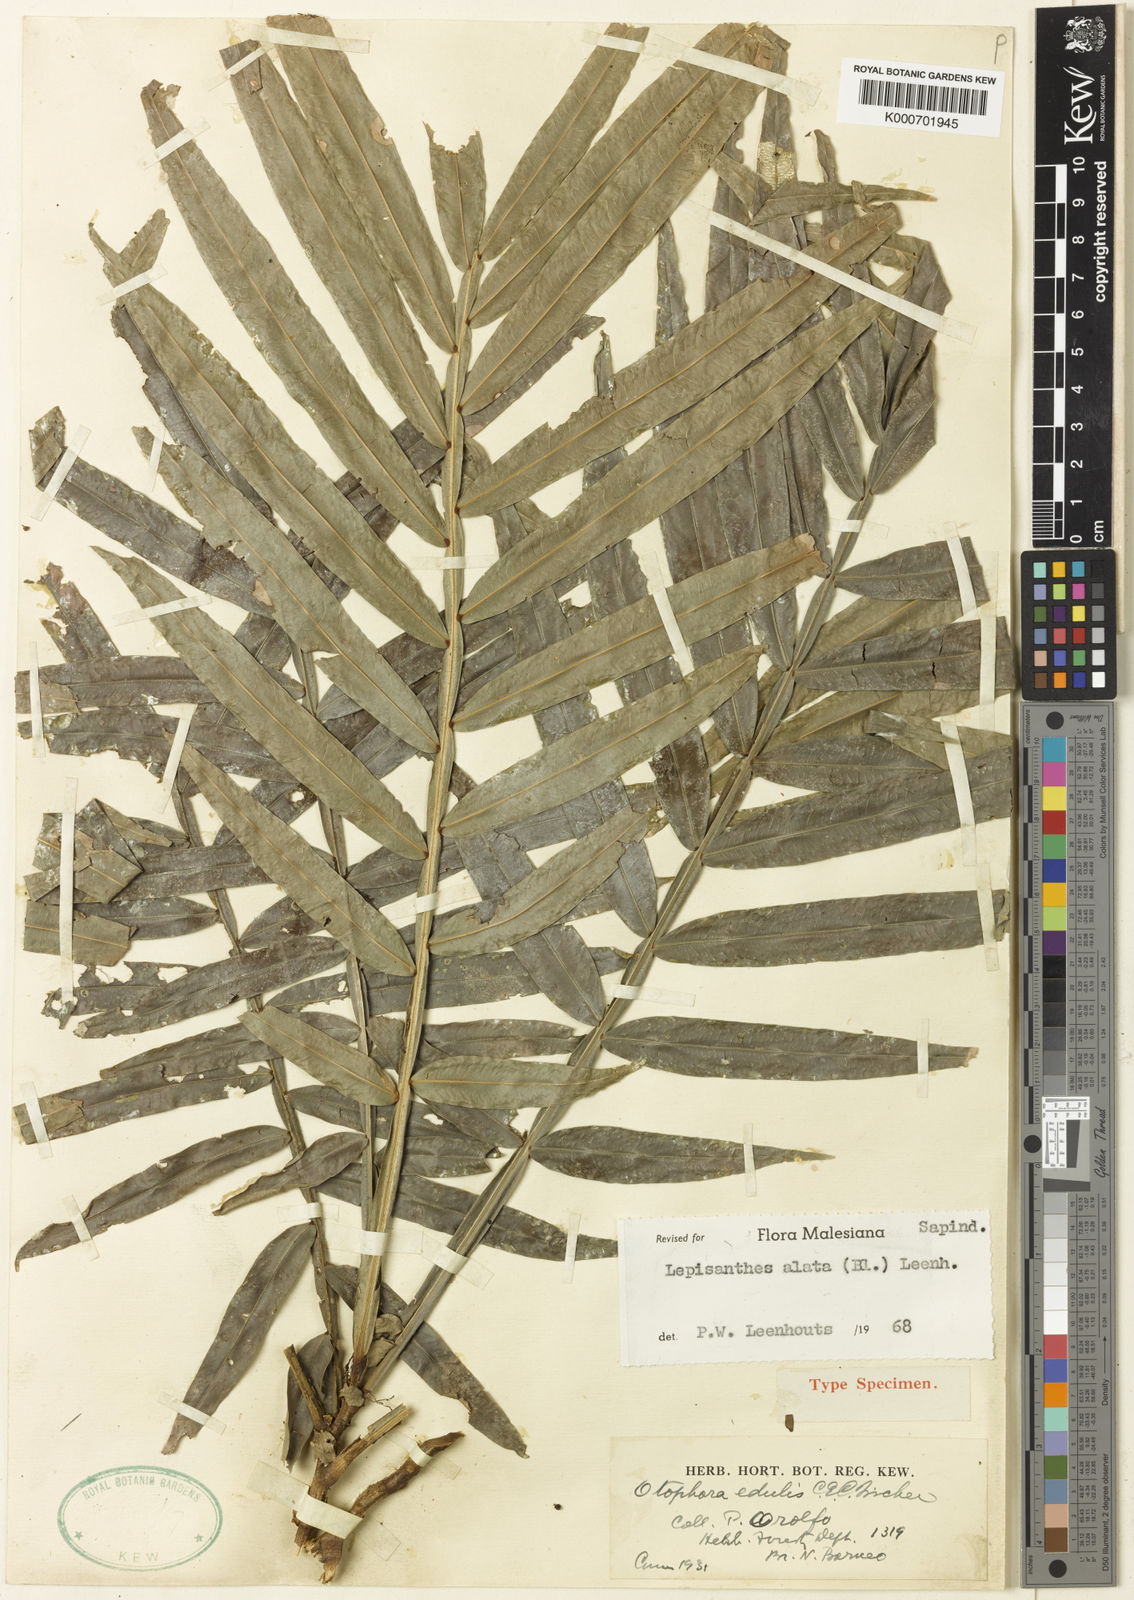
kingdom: Plantae
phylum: Tracheophyta
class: Magnoliopsida
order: Sapindales
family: Sapindaceae
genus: Lepisanthes
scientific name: Lepisanthes alata
